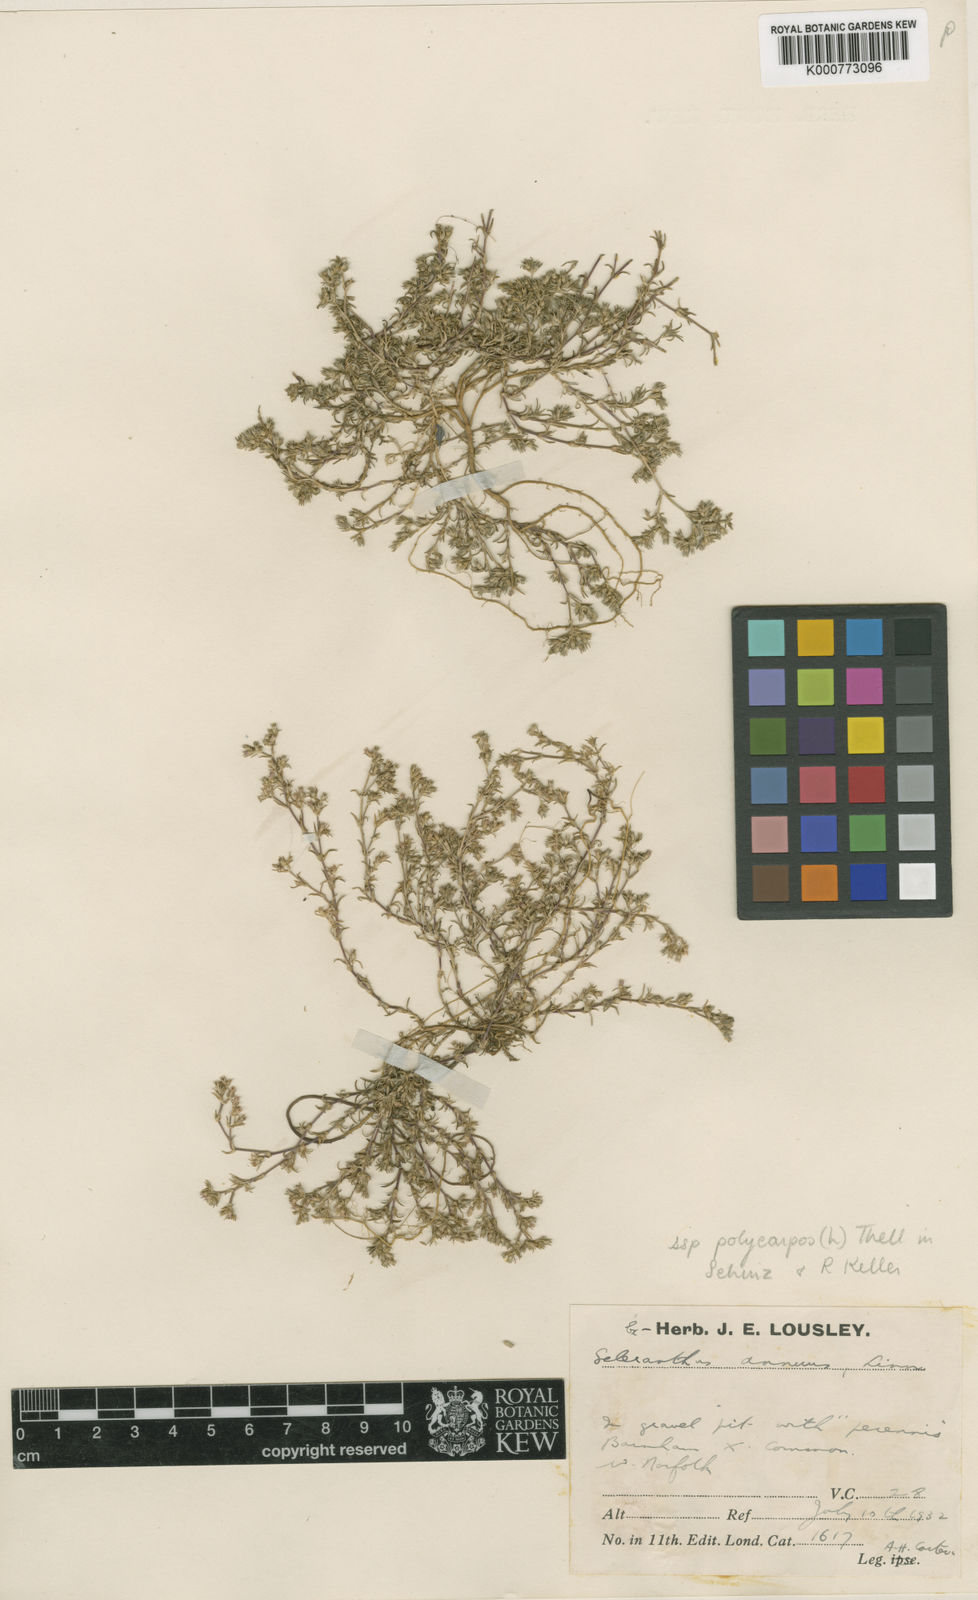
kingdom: Plantae
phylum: Tracheophyta
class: Magnoliopsida
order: Caryophyllales
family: Caryophyllaceae
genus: Scleranthus
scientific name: Scleranthus annuus
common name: Annual knawel
